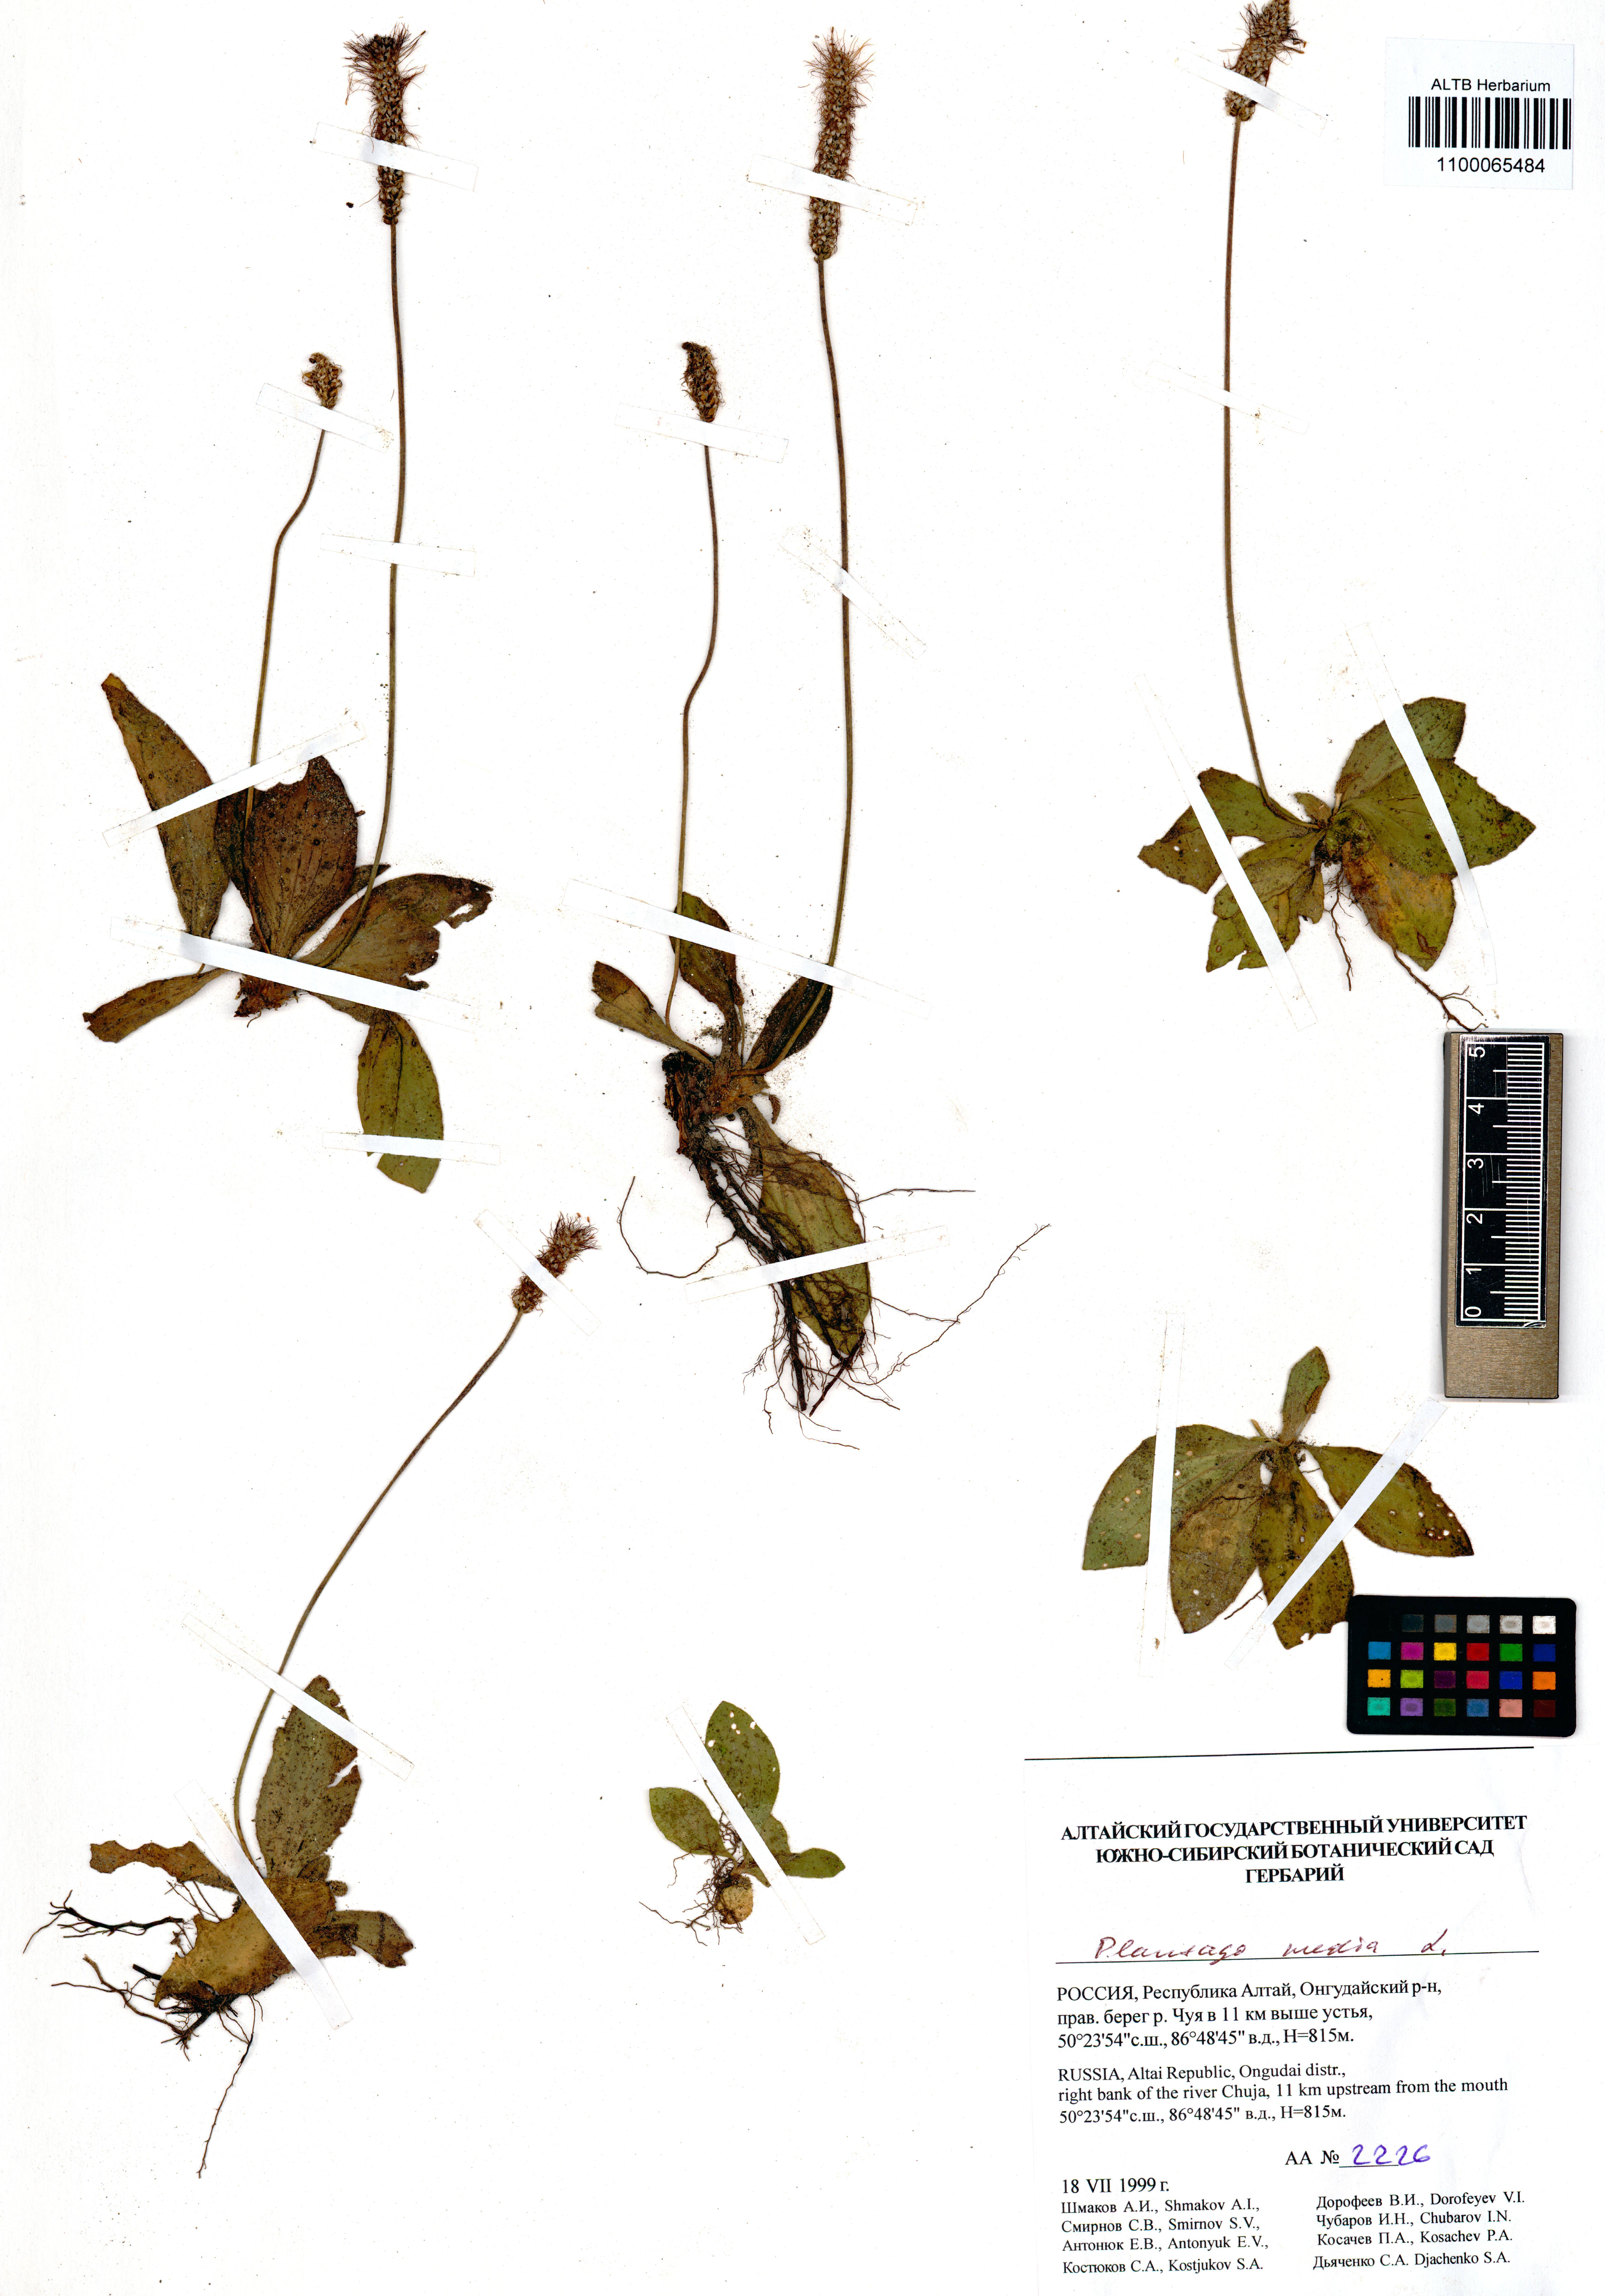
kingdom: Plantae
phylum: Tracheophyta
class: Magnoliopsida
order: Lamiales
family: Plantaginaceae
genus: Plantago
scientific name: Plantago media
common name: Hoary plantain
